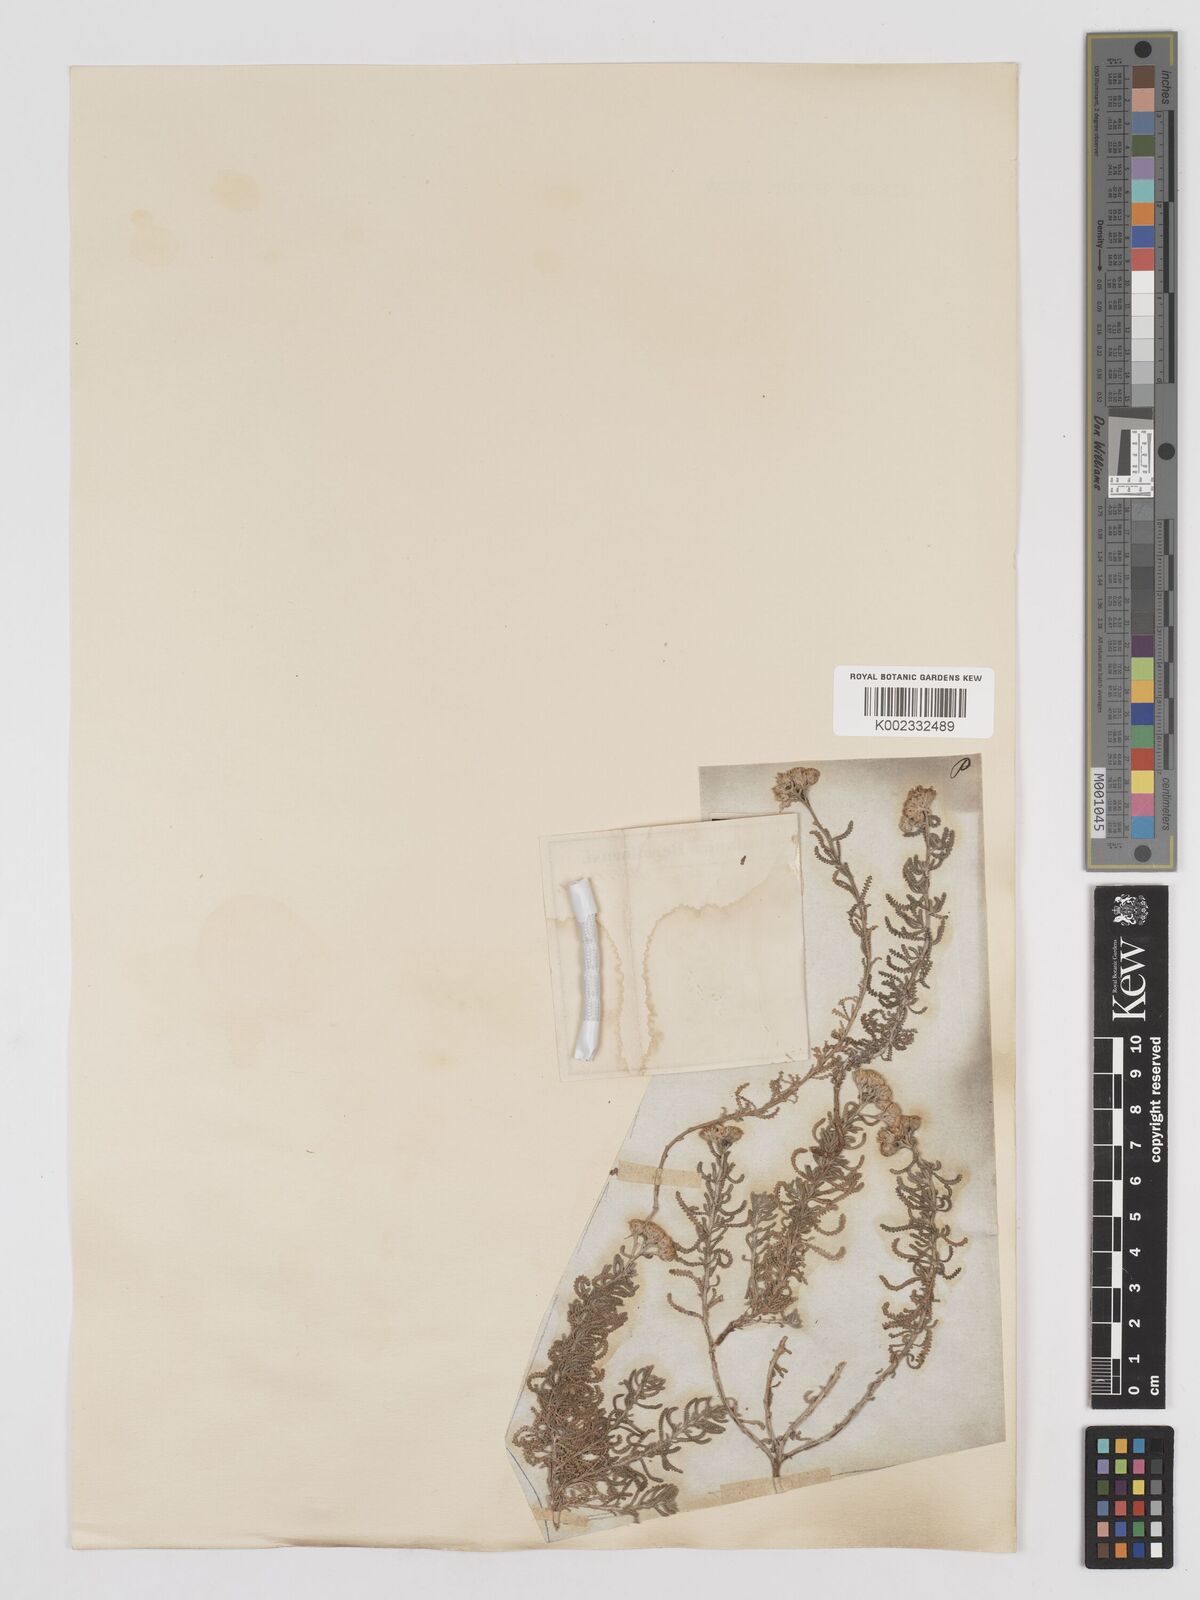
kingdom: Plantae
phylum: Tracheophyta
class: Magnoliopsida
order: Asterales
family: Asteraceae
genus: Achillea
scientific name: Achillea tenuifolia
